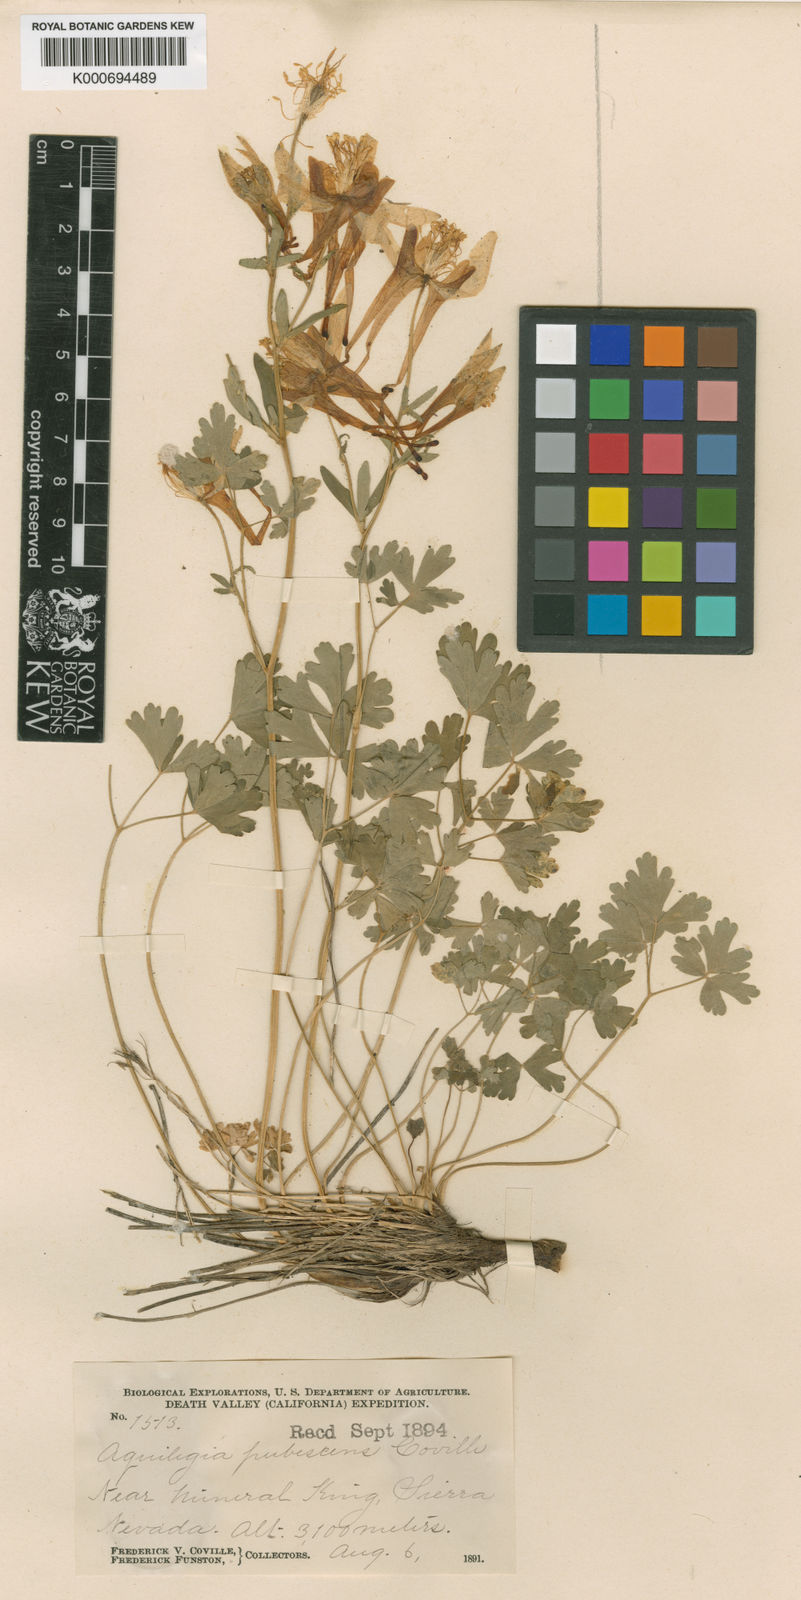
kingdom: Plantae
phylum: Tracheophyta
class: Magnoliopsida
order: Ranunculales
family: Ranunculaceae
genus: Aquilegia
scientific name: Aquilegia pubescens
